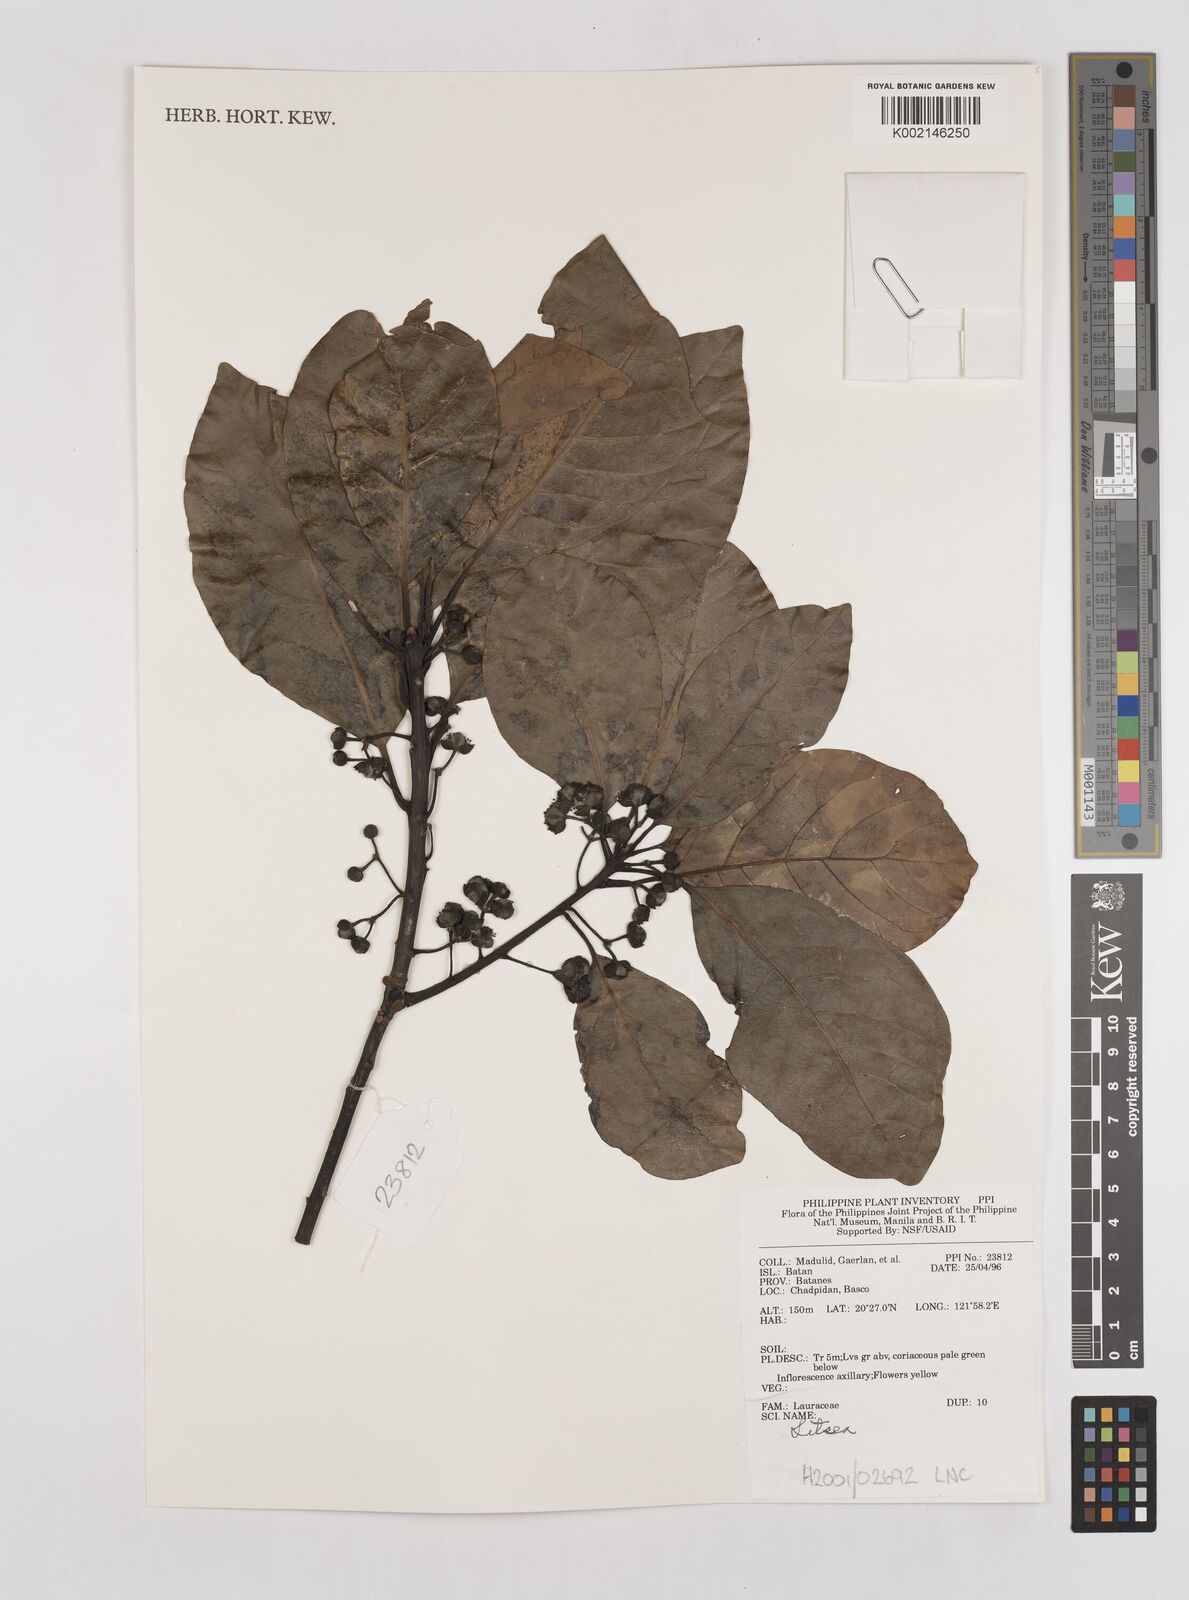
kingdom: Plantae
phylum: Tracheophyta
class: Magnoliopsida
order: Laurales
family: Lauraceae
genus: Litsea
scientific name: Litsea
